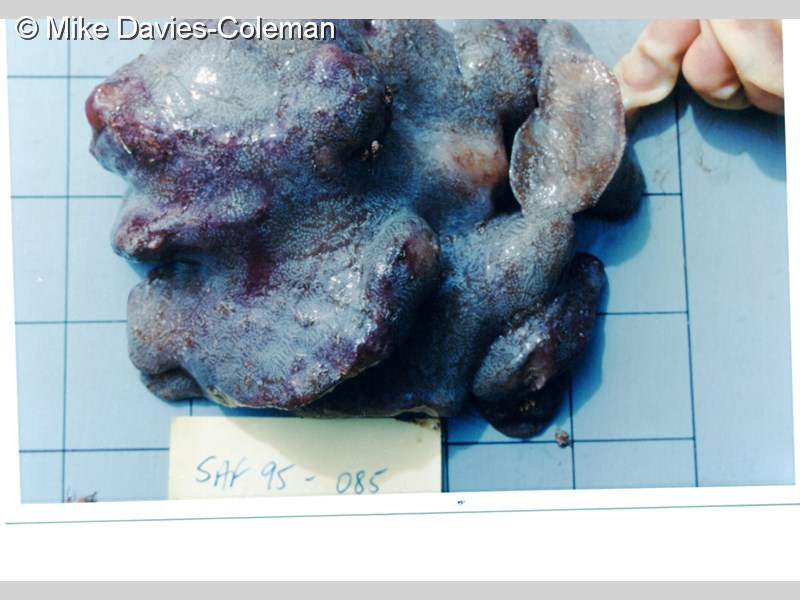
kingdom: Animalia
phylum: Chordata
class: Ascidiacea
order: Aplousobranchia
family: Polyclinidae
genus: Synoicum
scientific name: Synoicum
